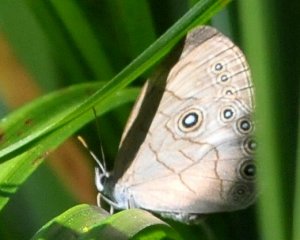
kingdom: Animalia
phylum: Arthropoda
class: Insecta
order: Lepidoptera
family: Nymphalidae
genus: Lethe
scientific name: Lethe eurydice
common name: Appalachian Eyed Brown
